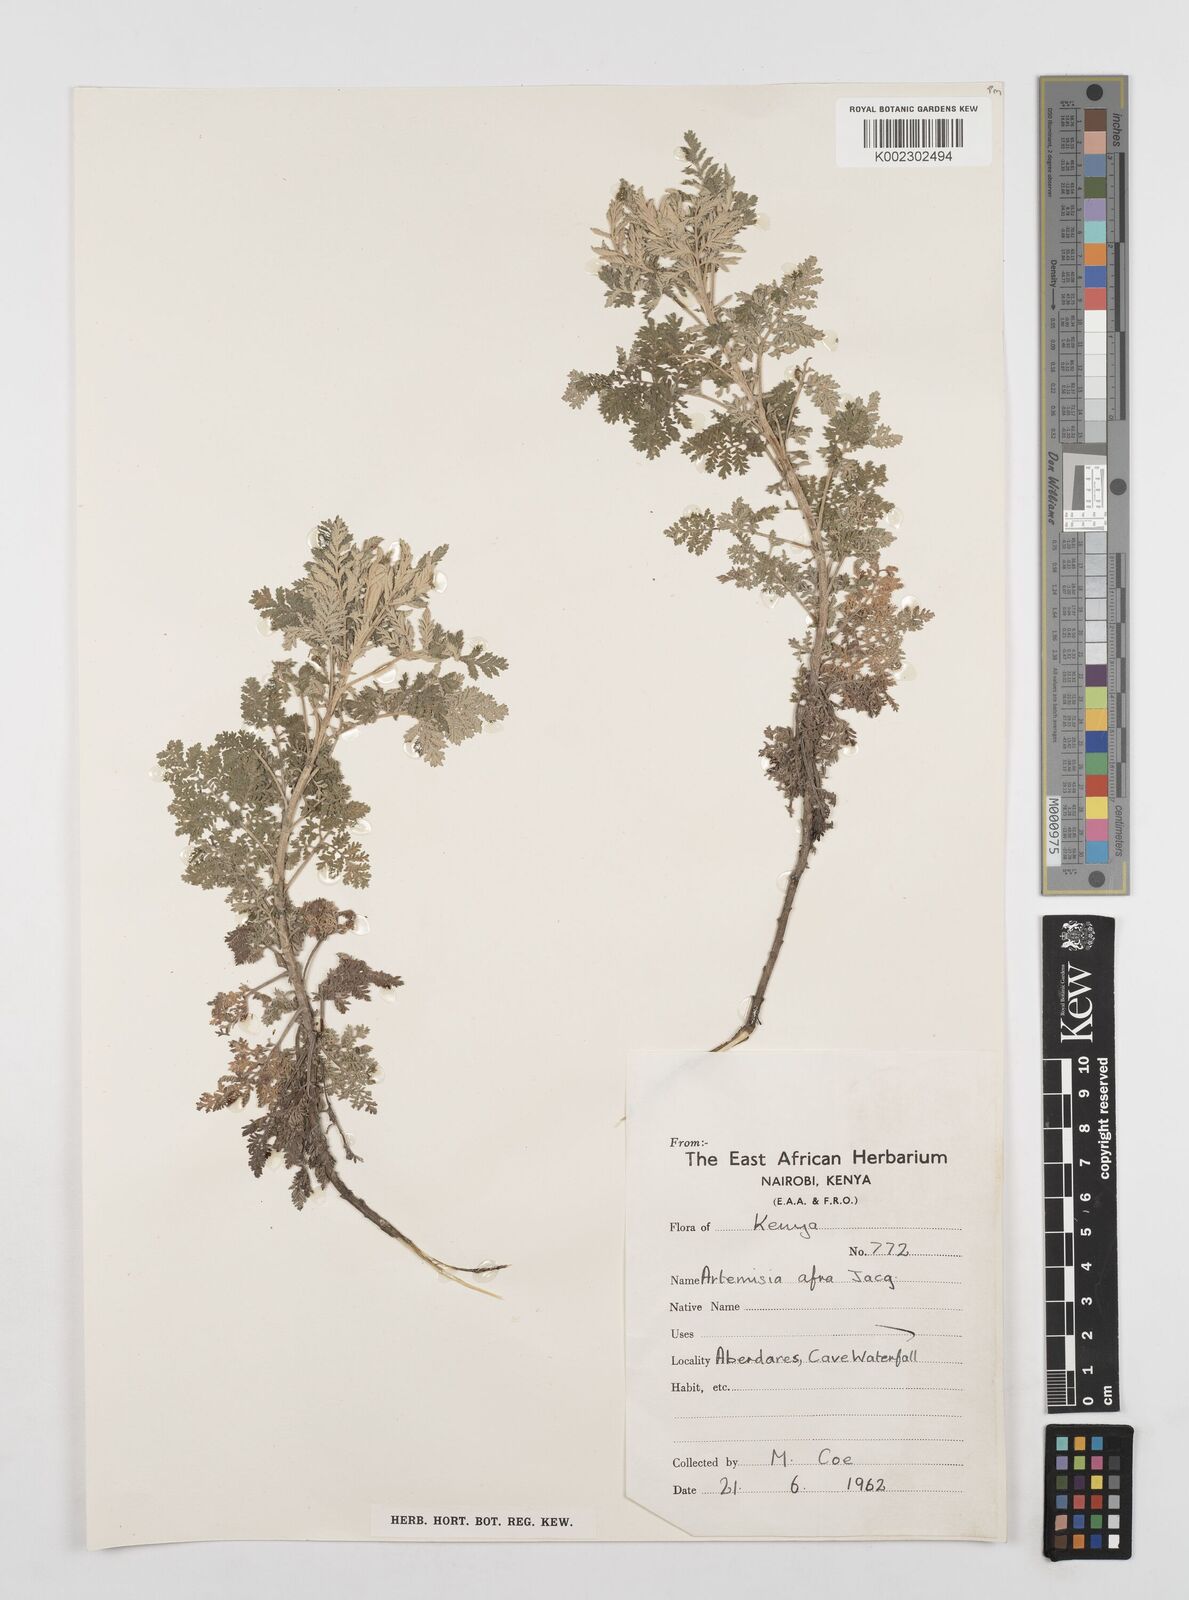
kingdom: Plantae
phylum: Tracheophyta
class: Magnoliopsida
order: Asterales
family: Asteraceae
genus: Artemisia
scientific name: Artemisia afra
